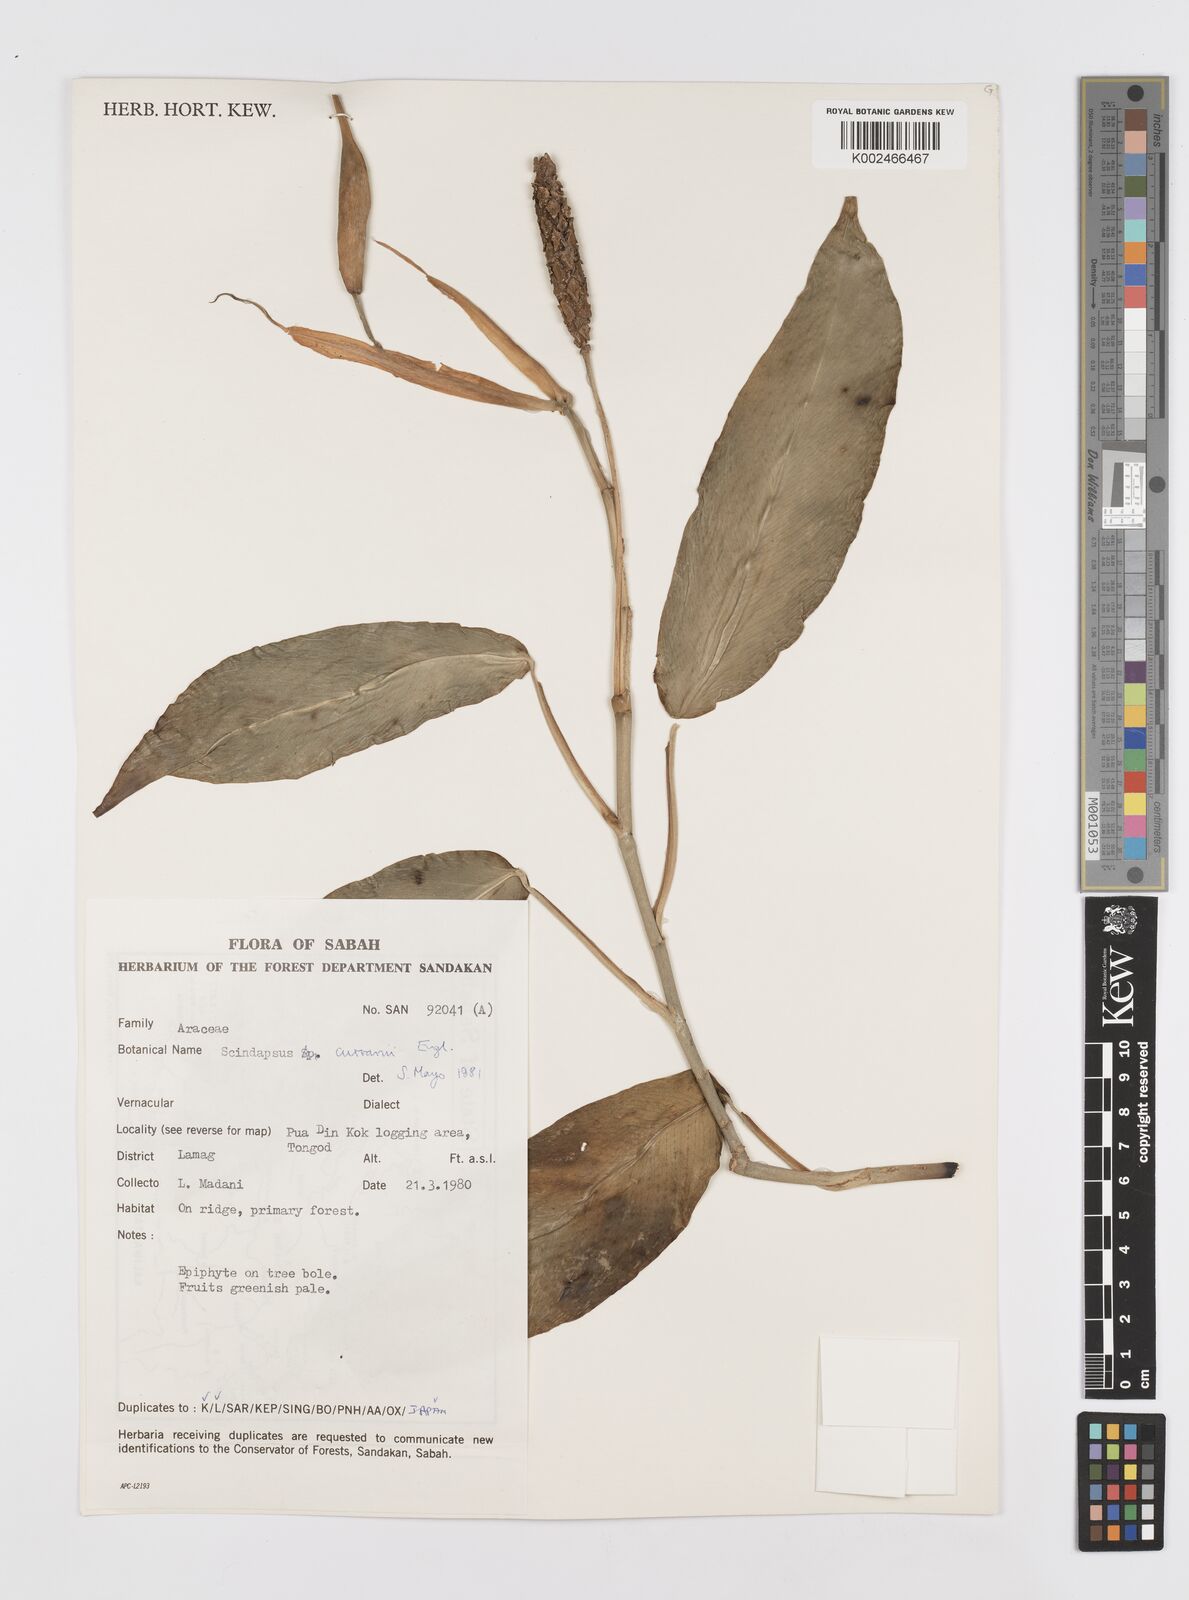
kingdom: Plantae
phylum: Tracheophyta
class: Liliopsida
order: Alismatales
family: Araceae
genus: Scindapsus
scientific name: Scindapsus curranii
